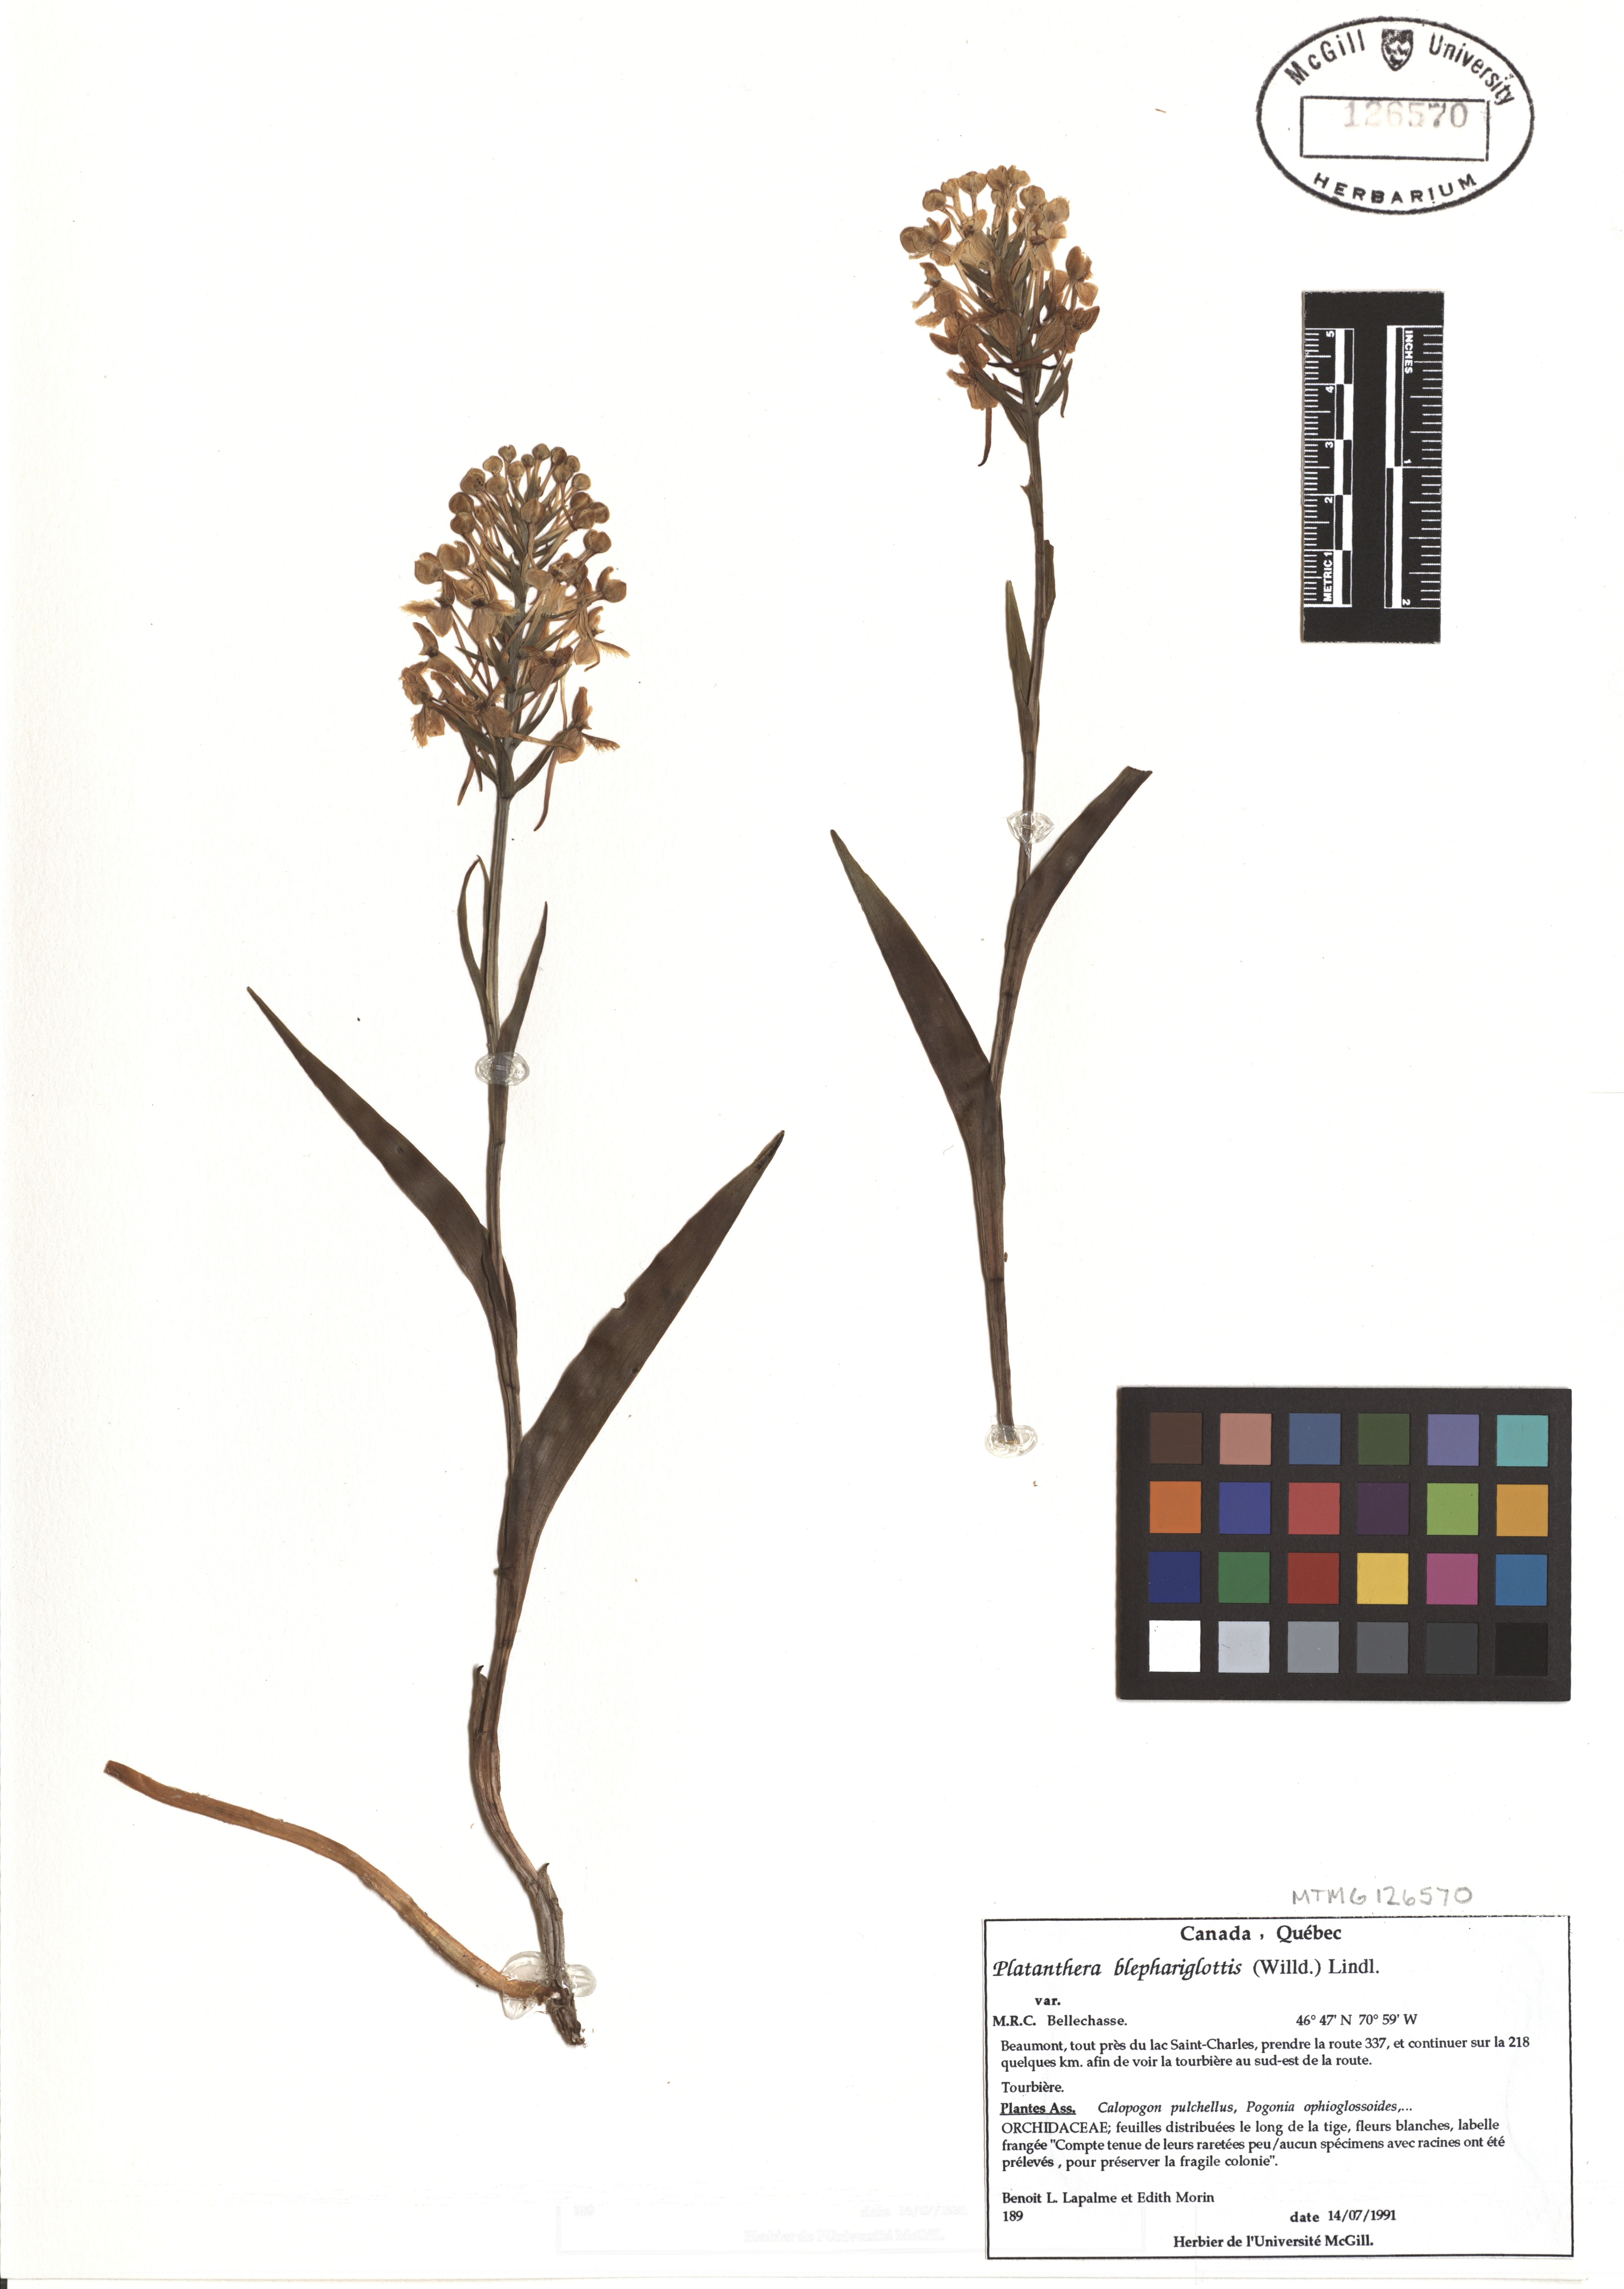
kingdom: Plantae
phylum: Tracheophyta
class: Liliopsida
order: Asparagales
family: Orchidaceae
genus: Platanthera
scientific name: Platanthera blephariglottis
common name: White fringed orchid
